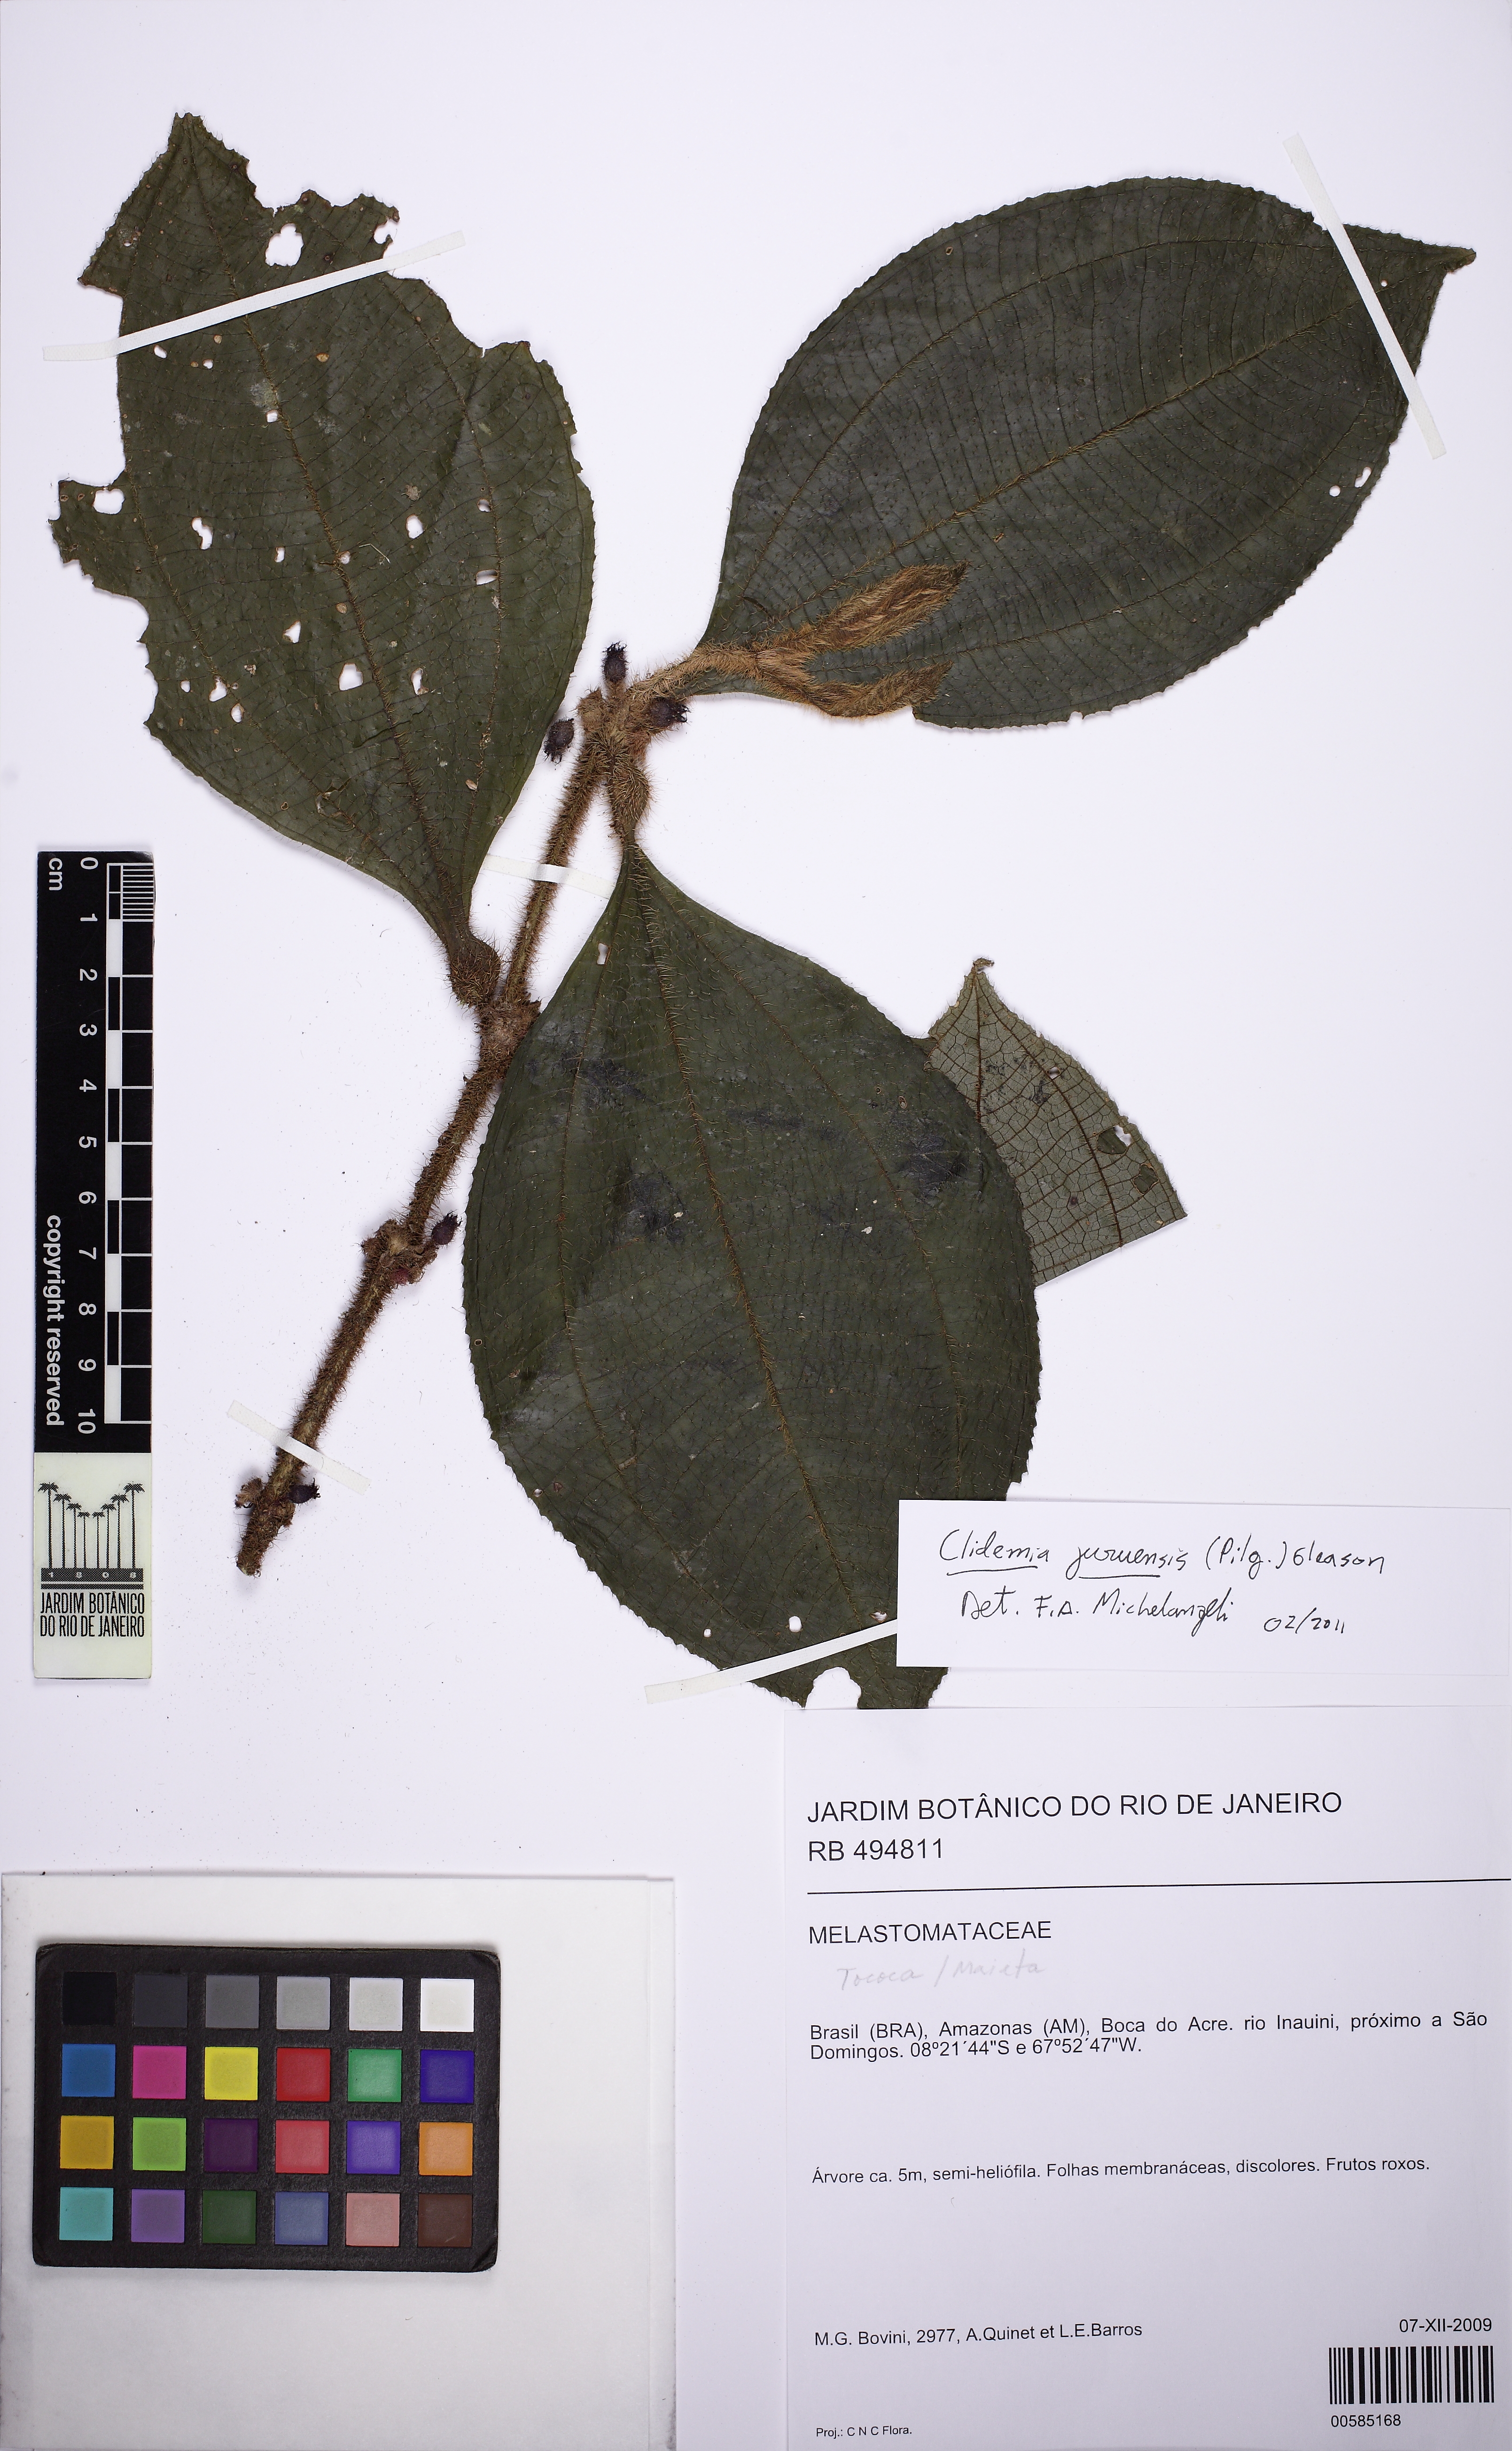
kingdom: Plantae
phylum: Tracheophyta
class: Magnoliopsida
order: Myrtales
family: Melastomataceae
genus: Miconia
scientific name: Miconia formicojuruensis
